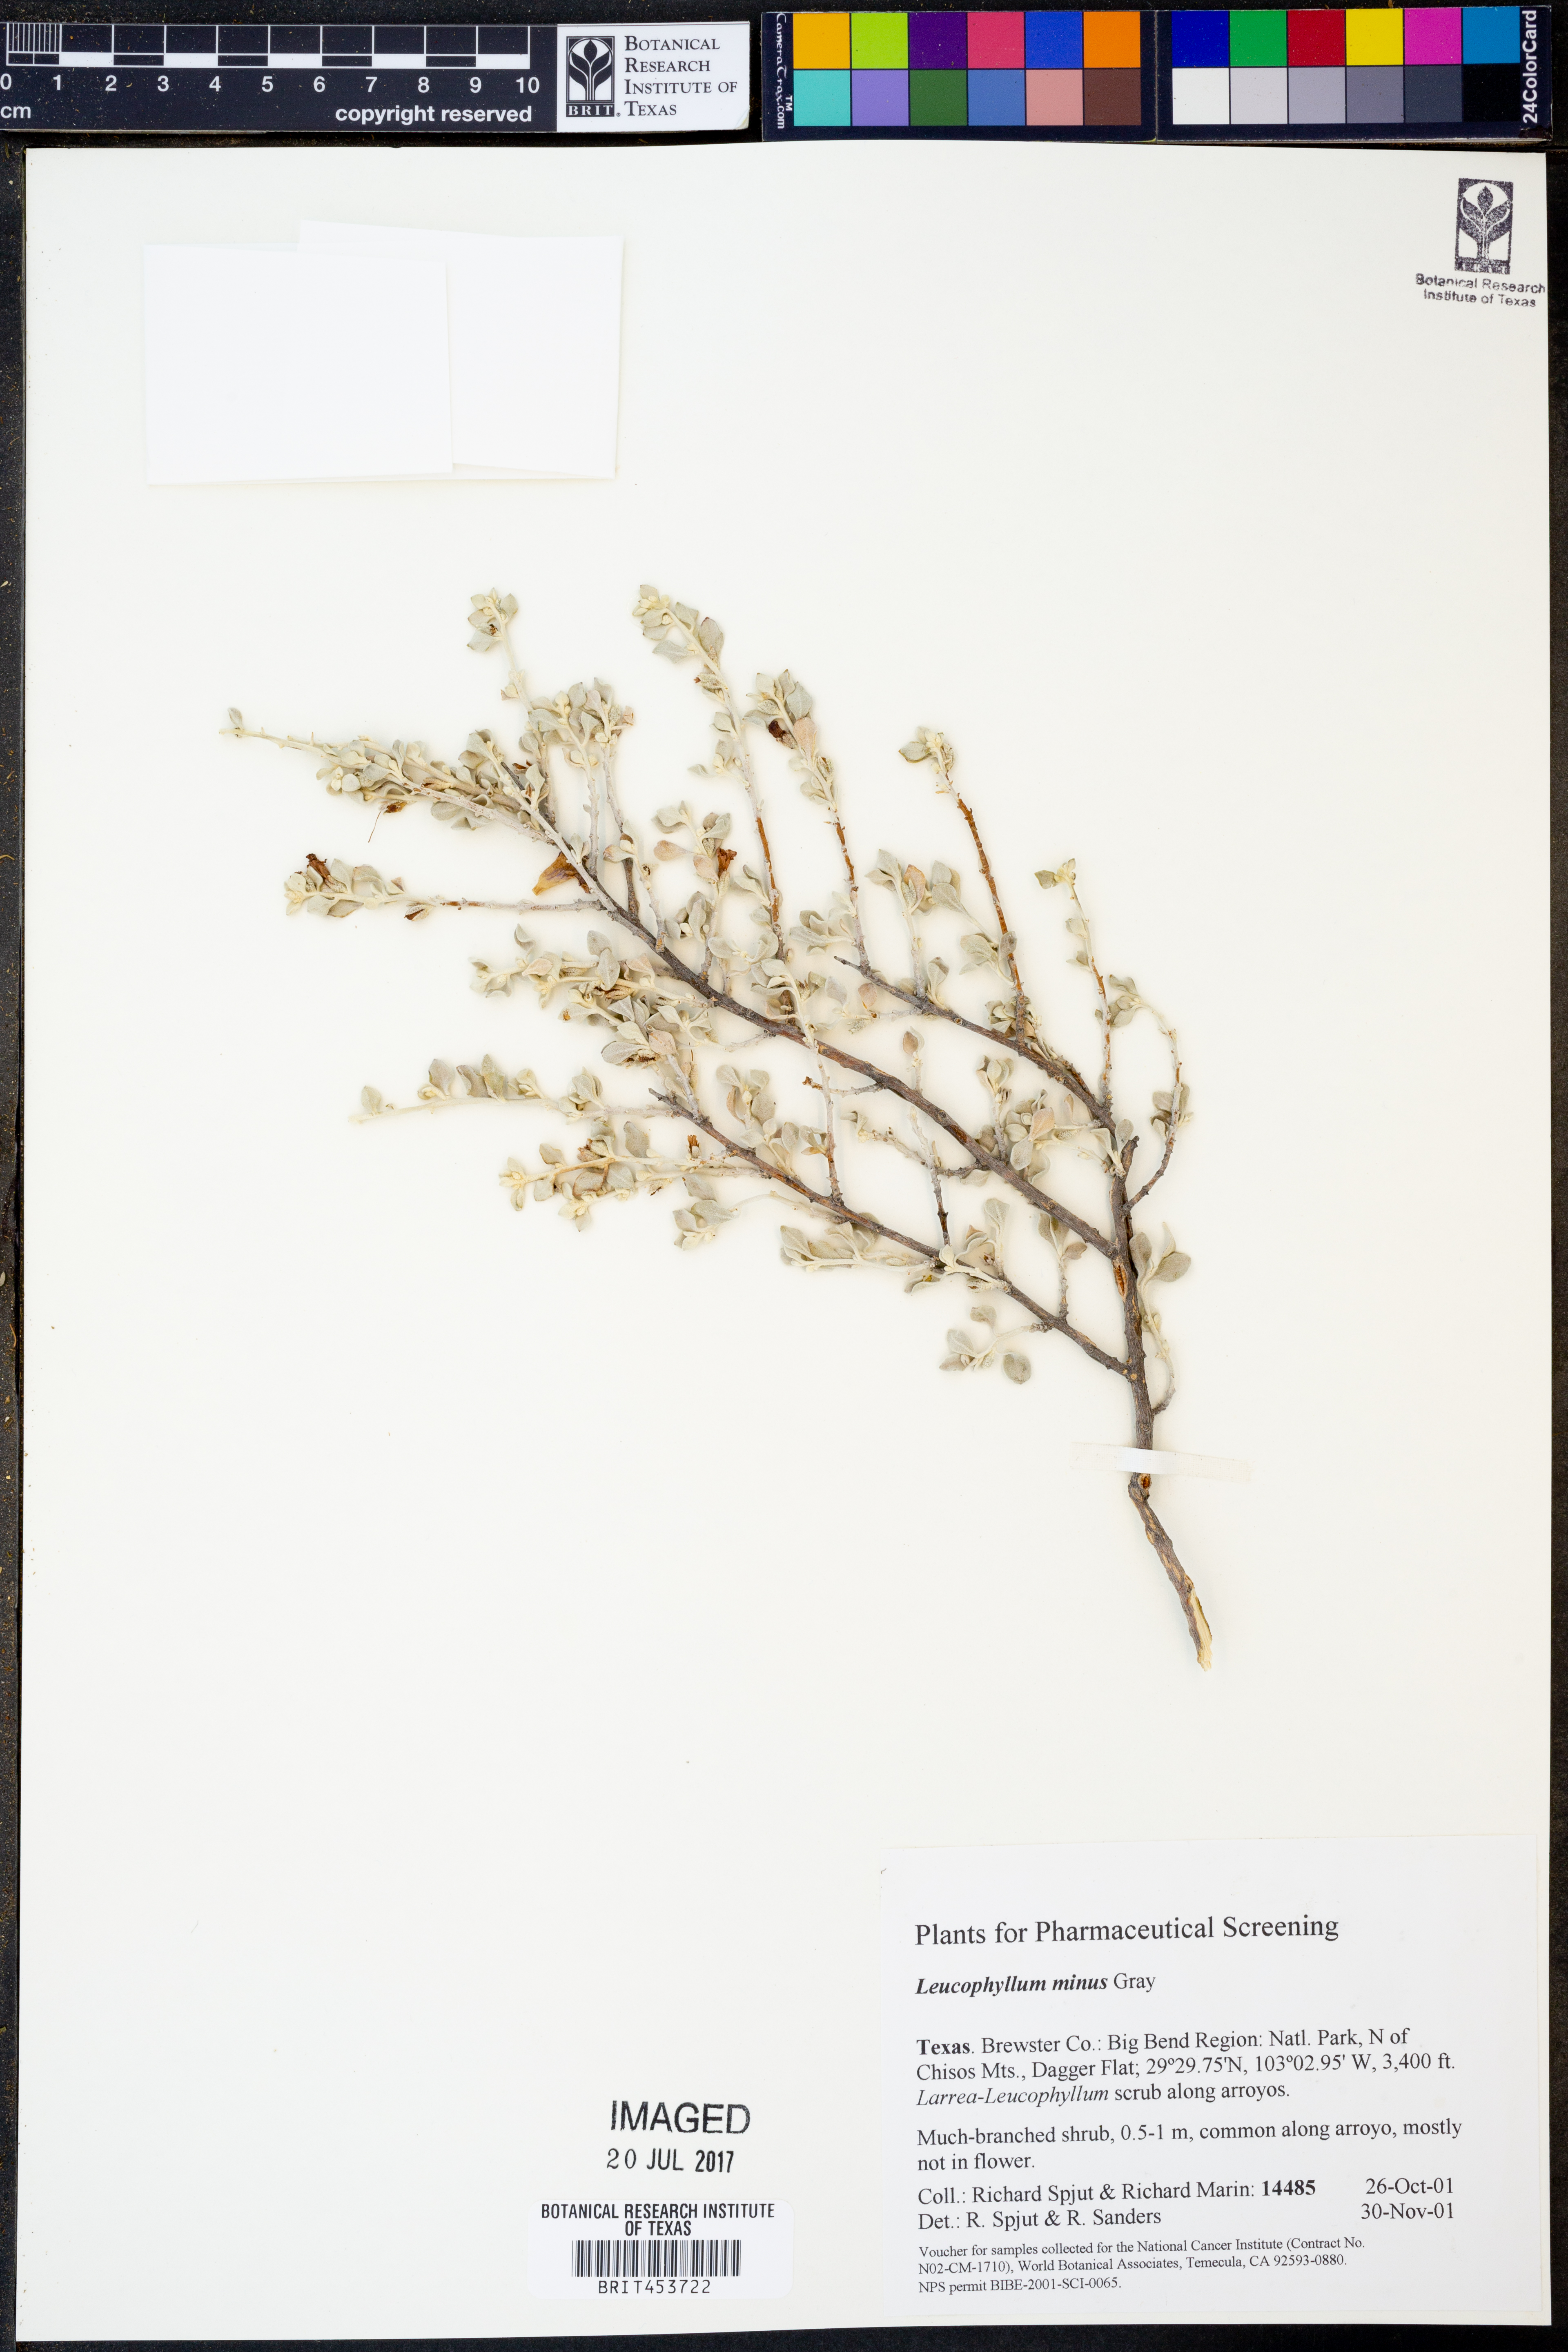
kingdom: Plantae
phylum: Tracheophyta
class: Magnoliopsida
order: Lamiales
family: Scrophulariaceae
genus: Leucophyllum
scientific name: Leucophyllum minus
